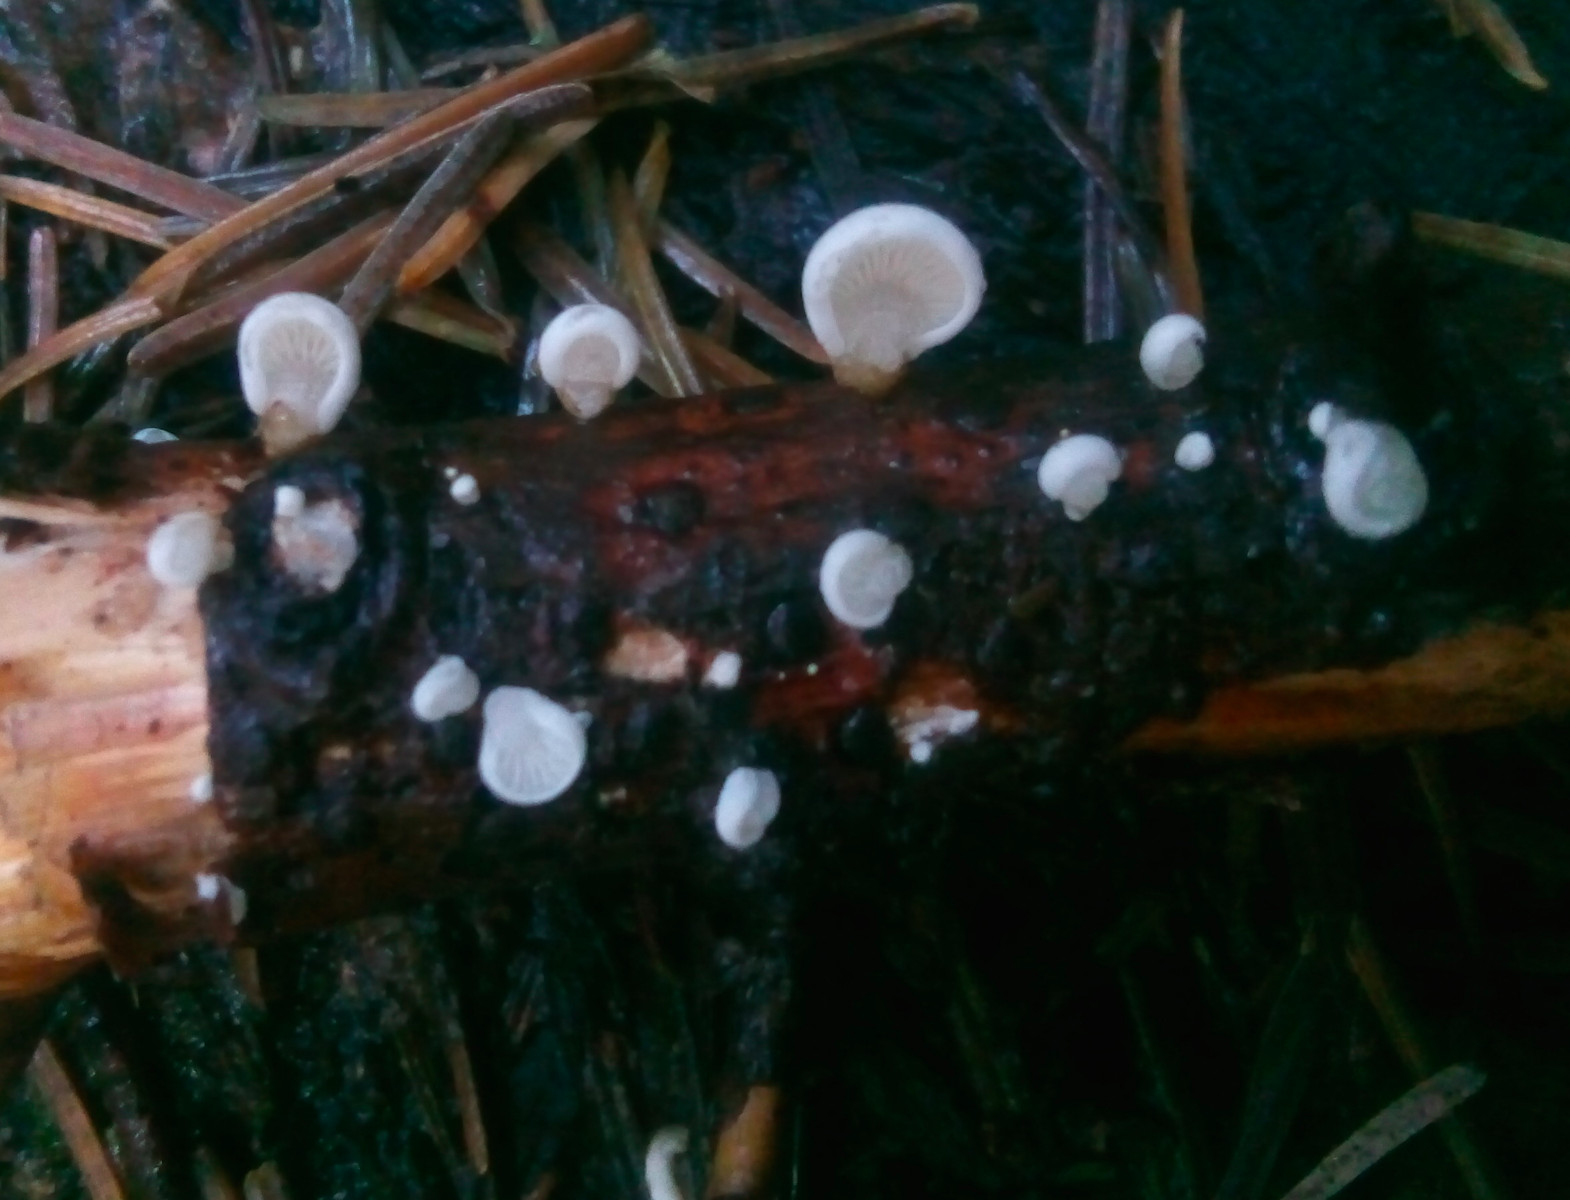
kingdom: Fungi
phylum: Basidiomycota
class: Agaricomycetes
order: Agaricales
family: Mycenaceae
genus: Panellus
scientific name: Panellus mitis
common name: mild epaulethat
